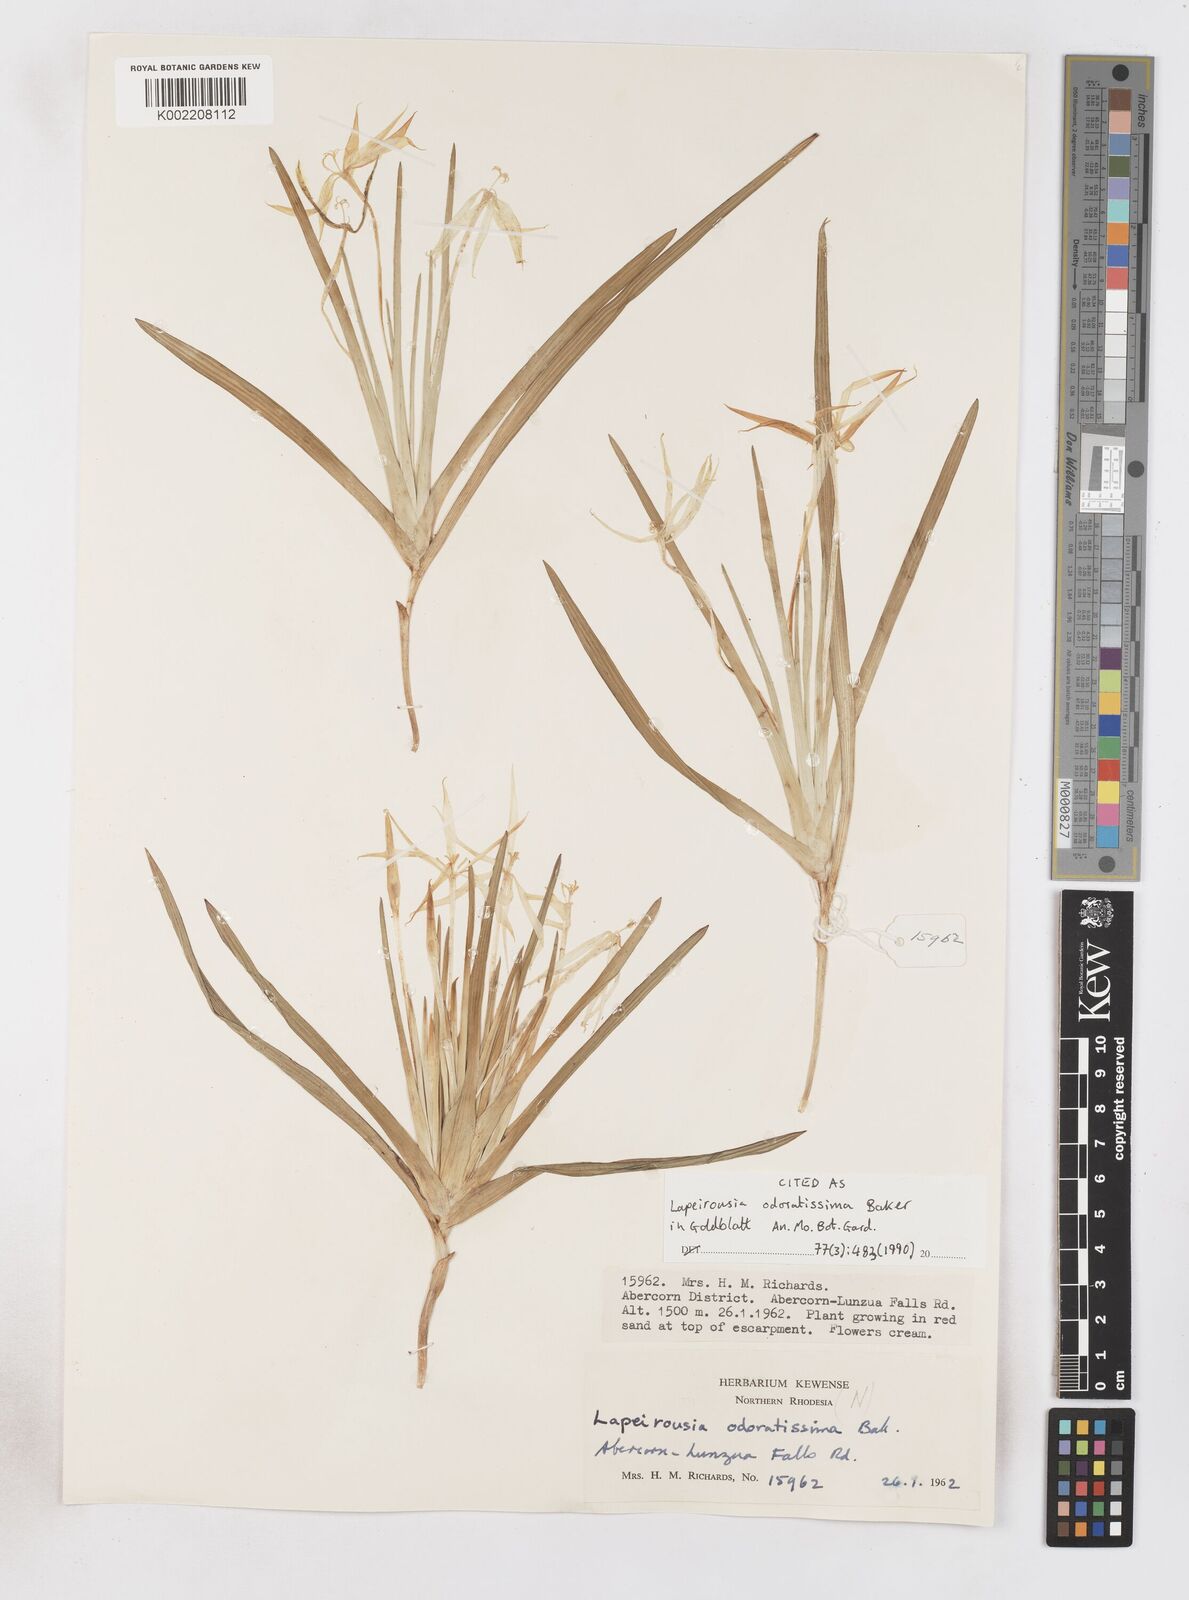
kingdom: Plantae
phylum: Tracheophyta
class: Liliopsida
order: Asparagales
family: Iridaceae
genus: Lapeirousia
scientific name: Lapeirousia odoratissima
